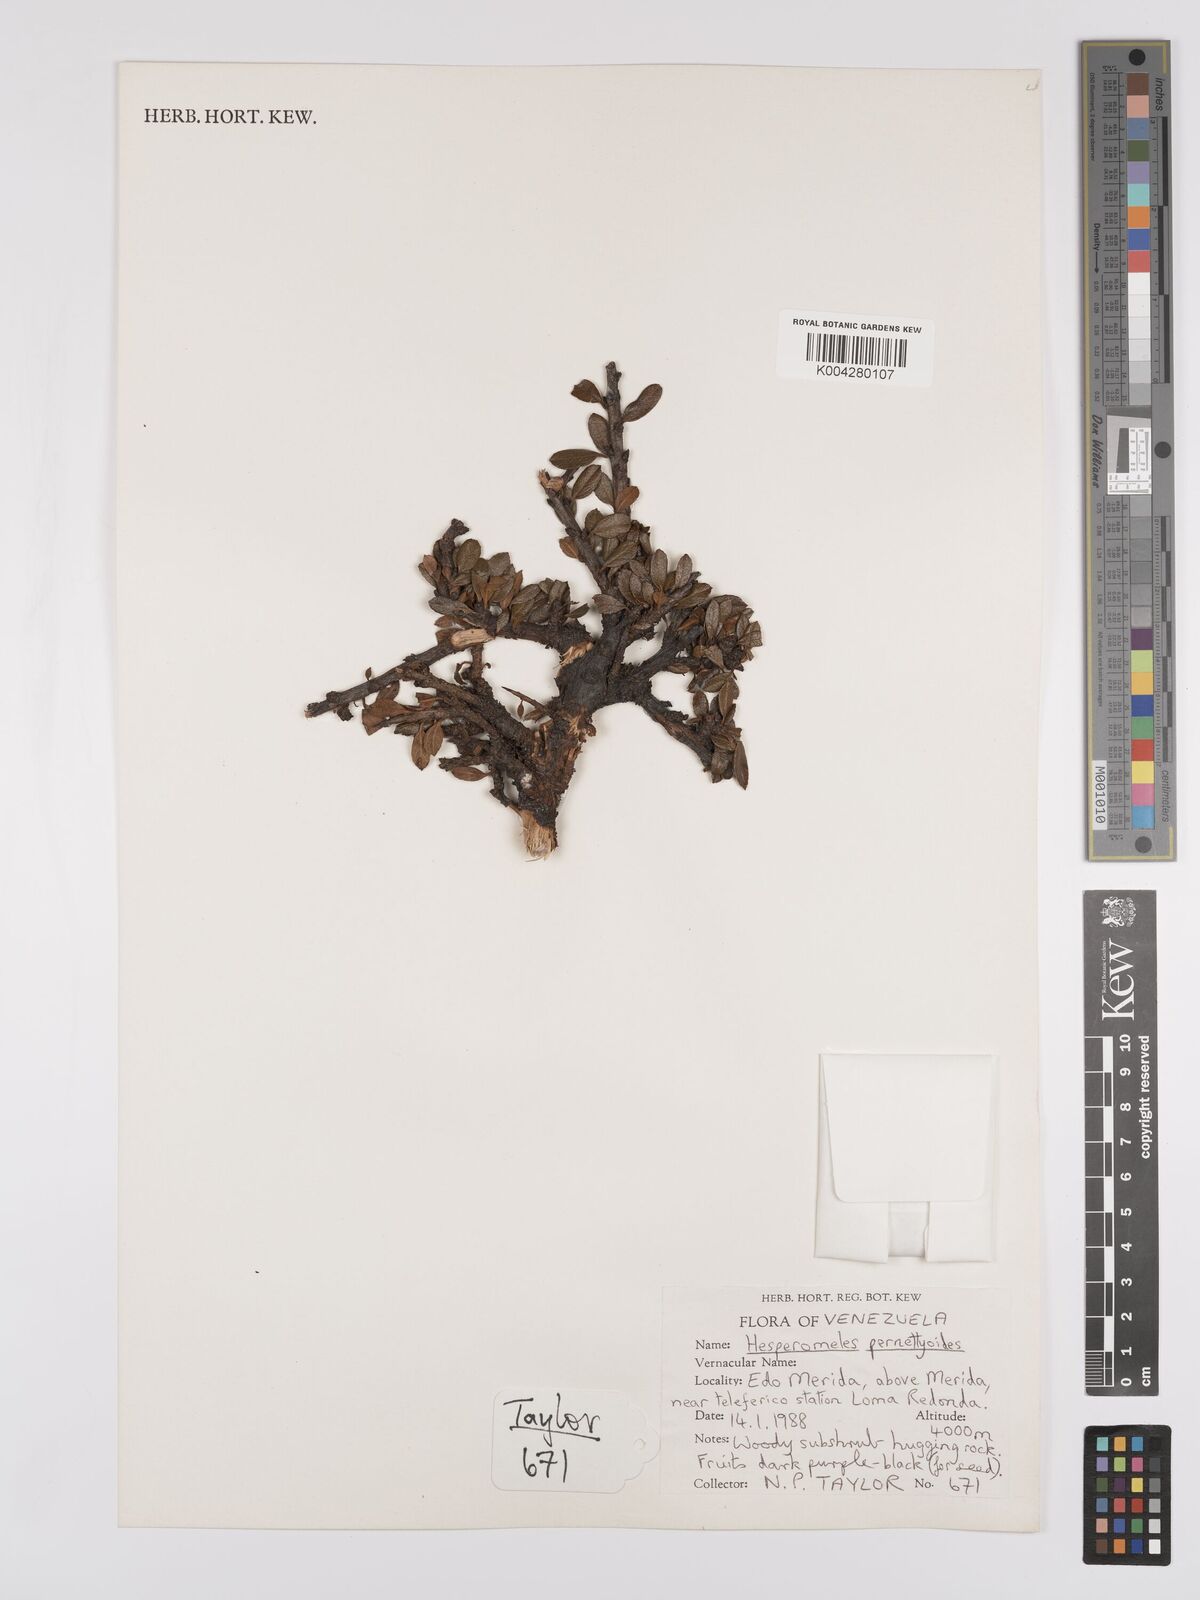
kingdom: Plantae
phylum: Tracheophyta
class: Magnoliopsida
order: Rosales
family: Rosaceae
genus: Hesperomeles
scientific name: Hesperomeles obtusifolia
